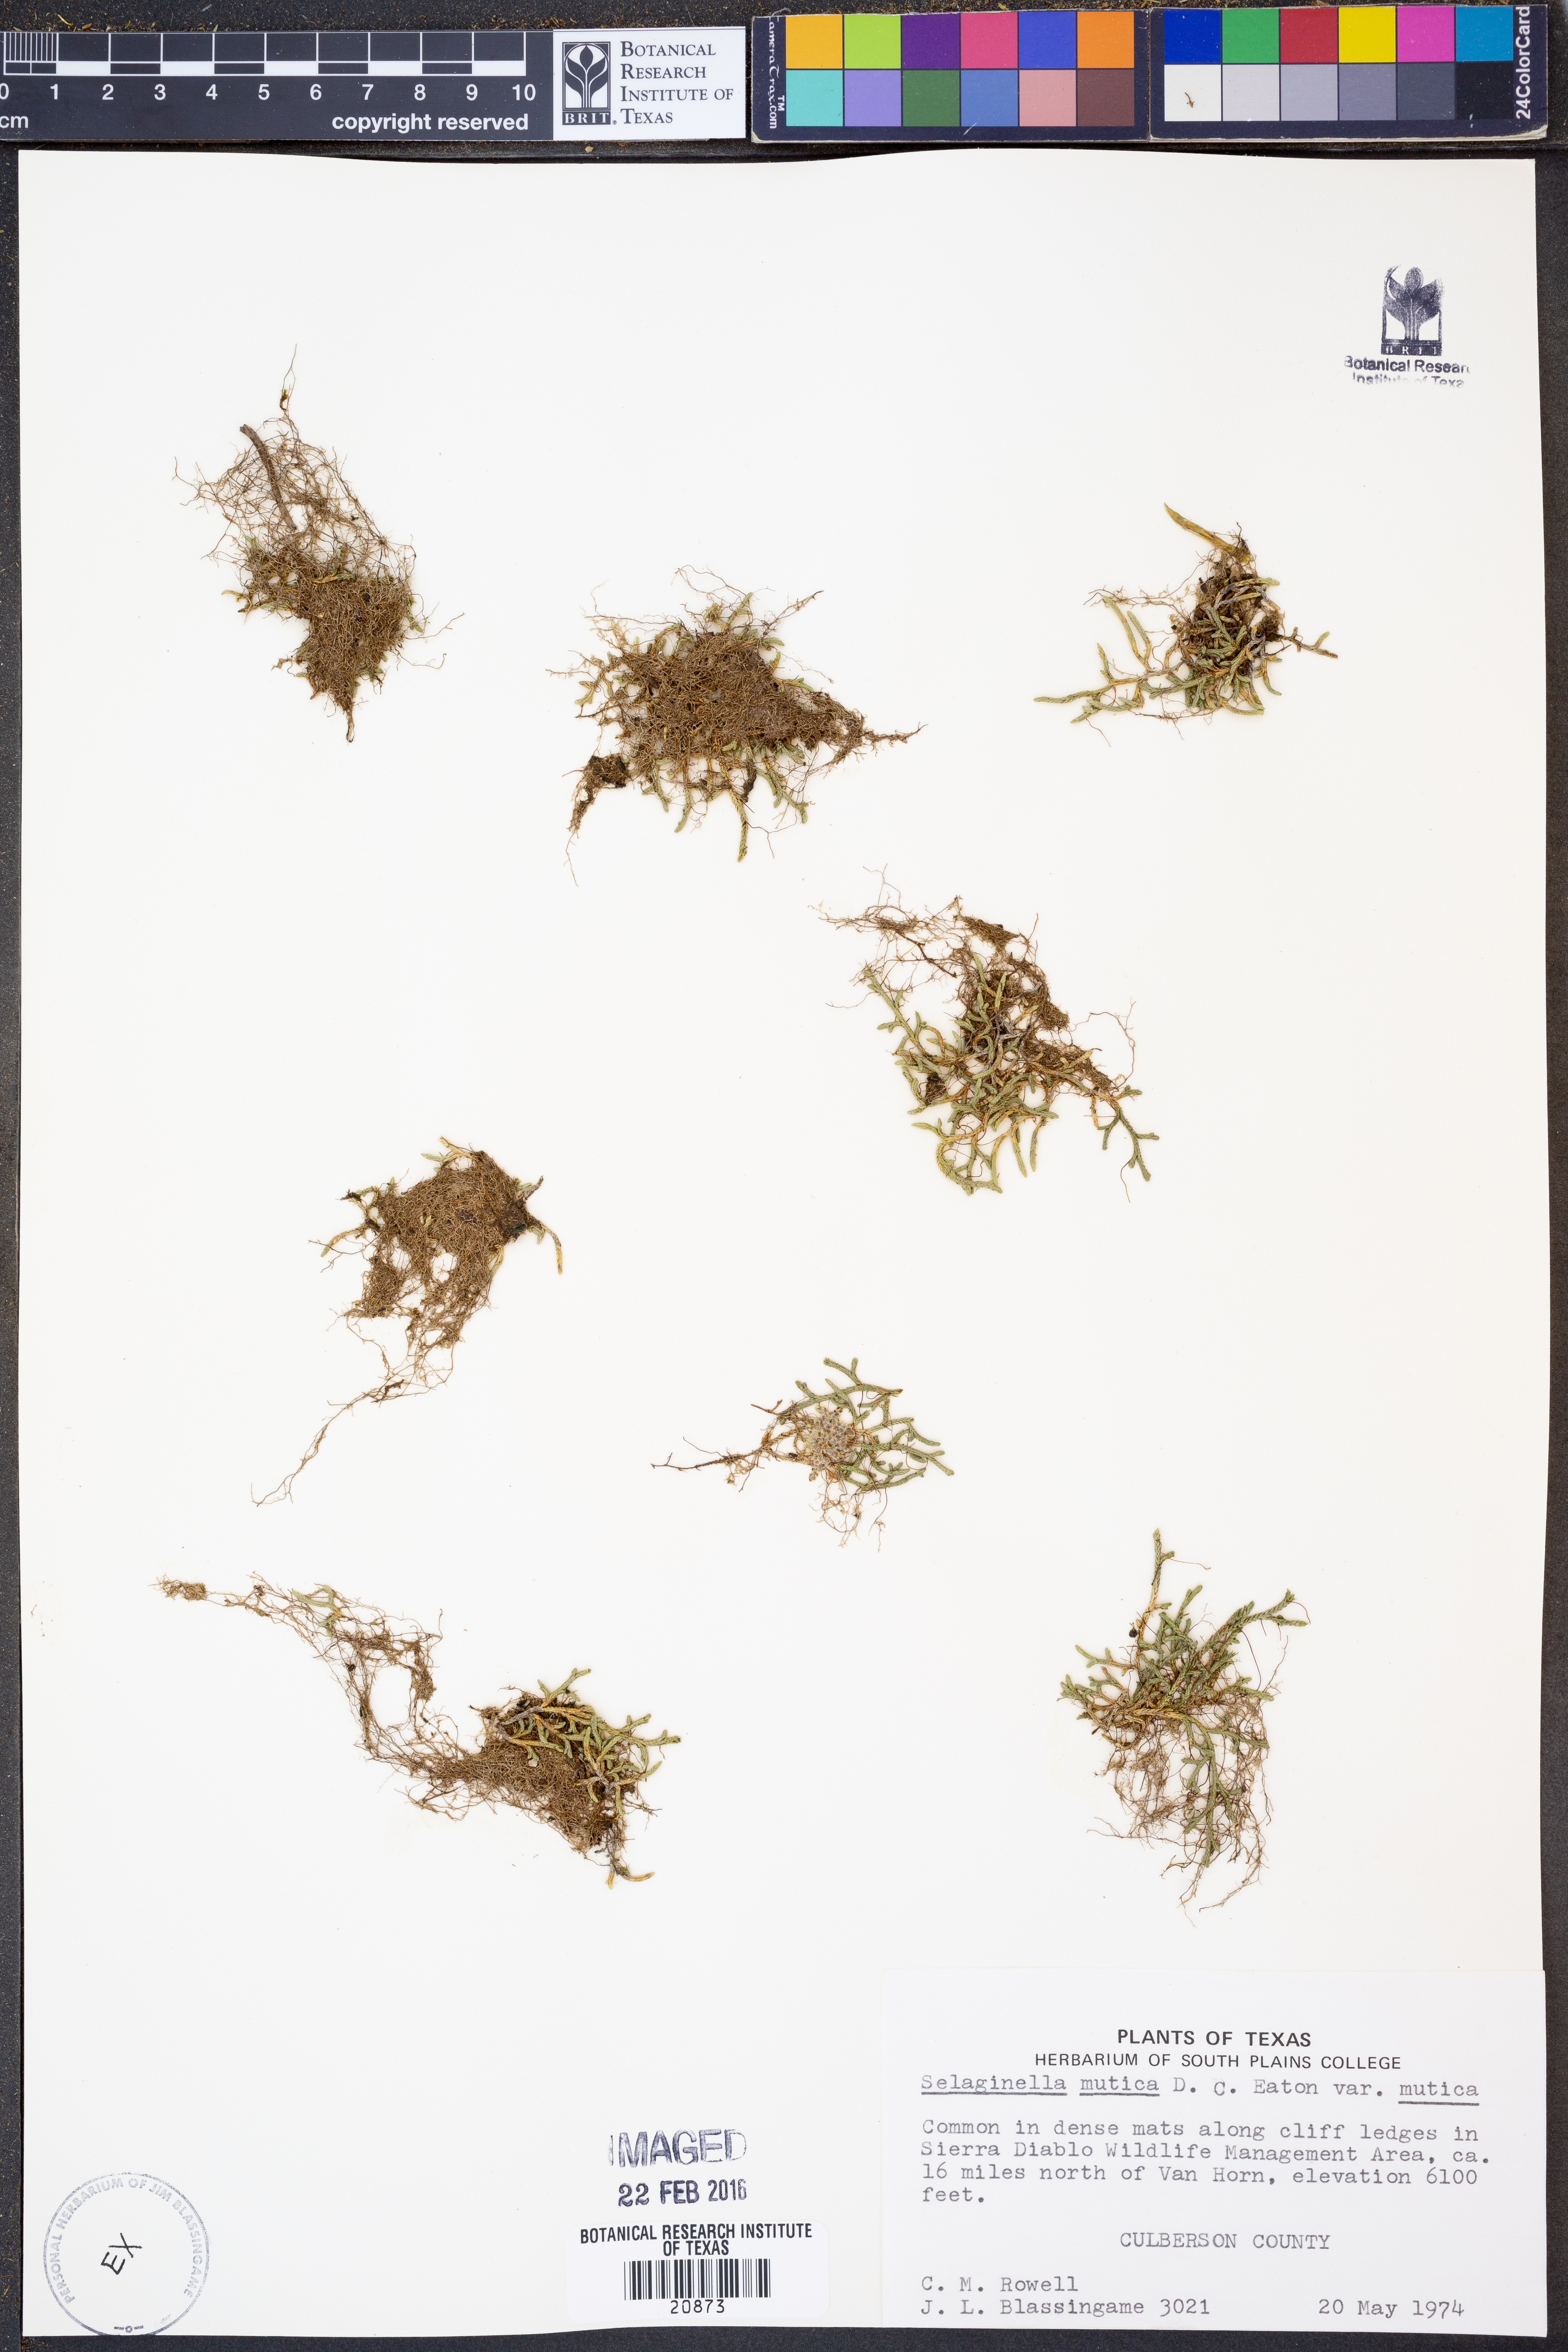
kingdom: Plantae
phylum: Tracheophyta
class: Lycopodiopsida
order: Selaginellales
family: Selaginellaceae
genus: Selaginella
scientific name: Selaginella mutica
